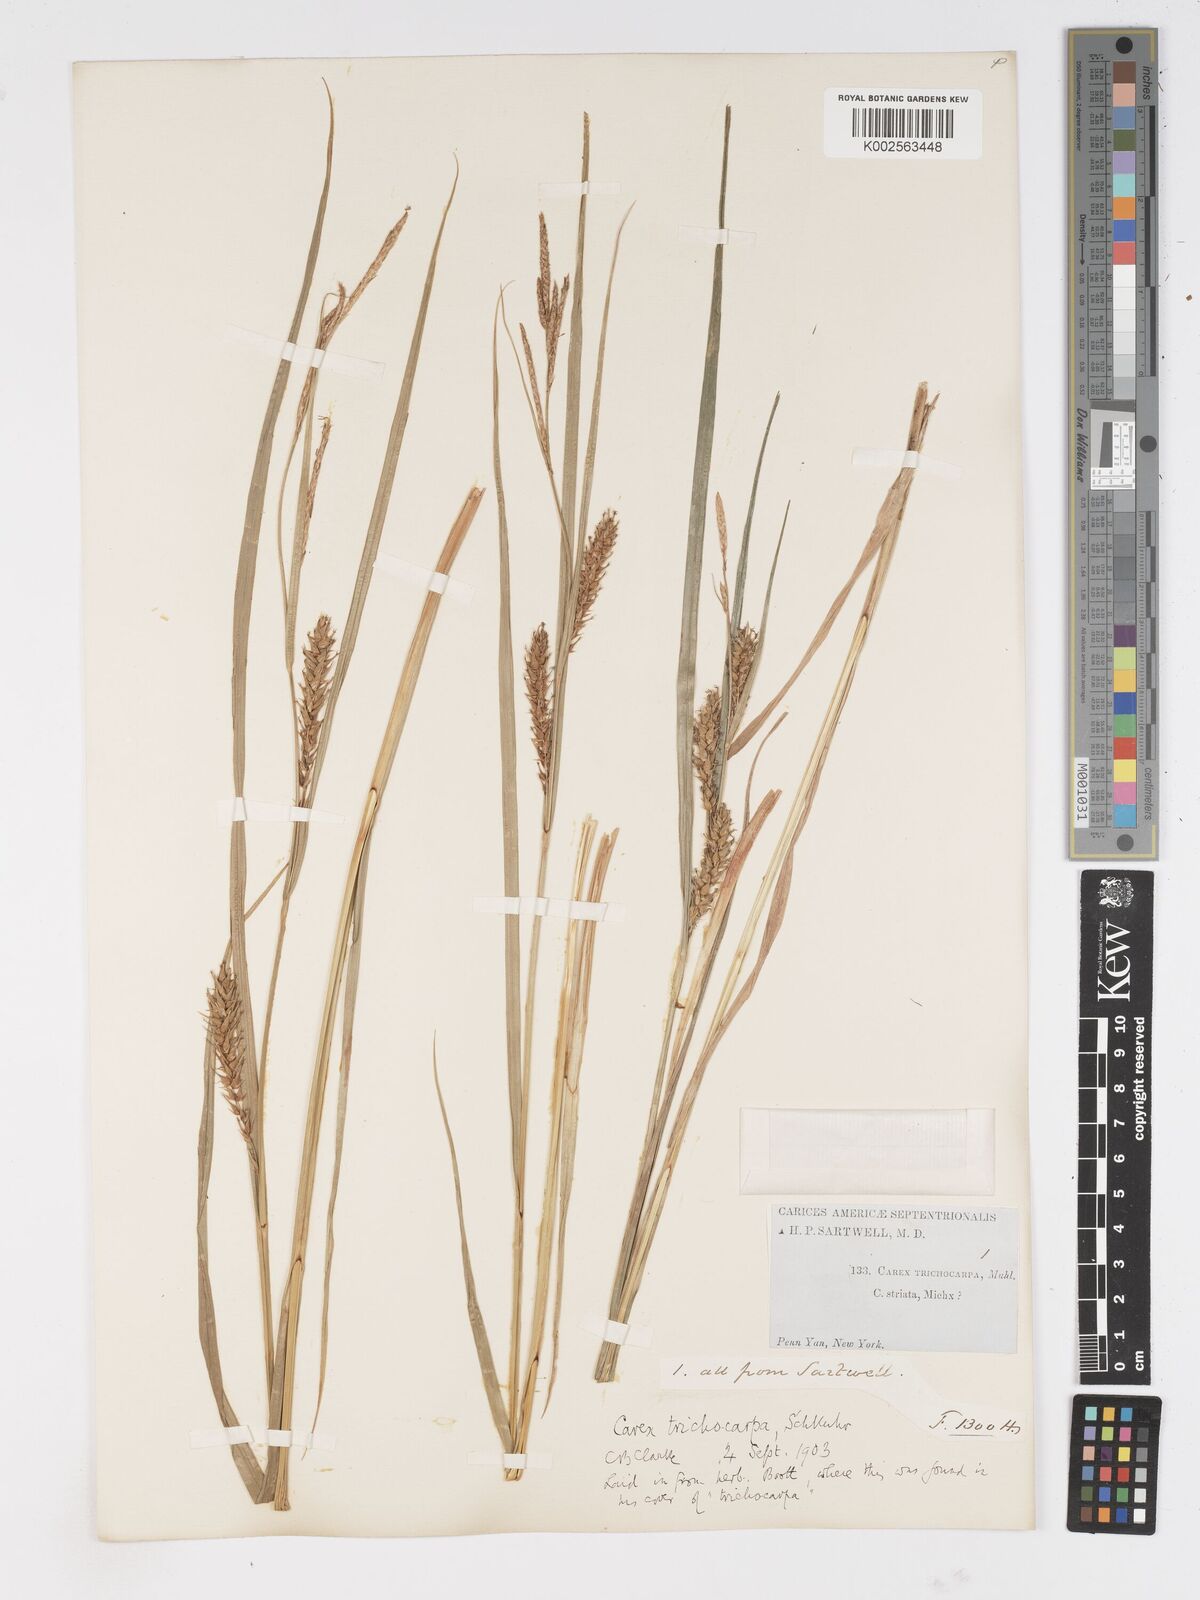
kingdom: Plantae
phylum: Tracheophyta
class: Liliopsida
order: Poales
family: Cyperaceae
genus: Carex
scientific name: Carex trichocarpa
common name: Hairy-fruited lake sedge
